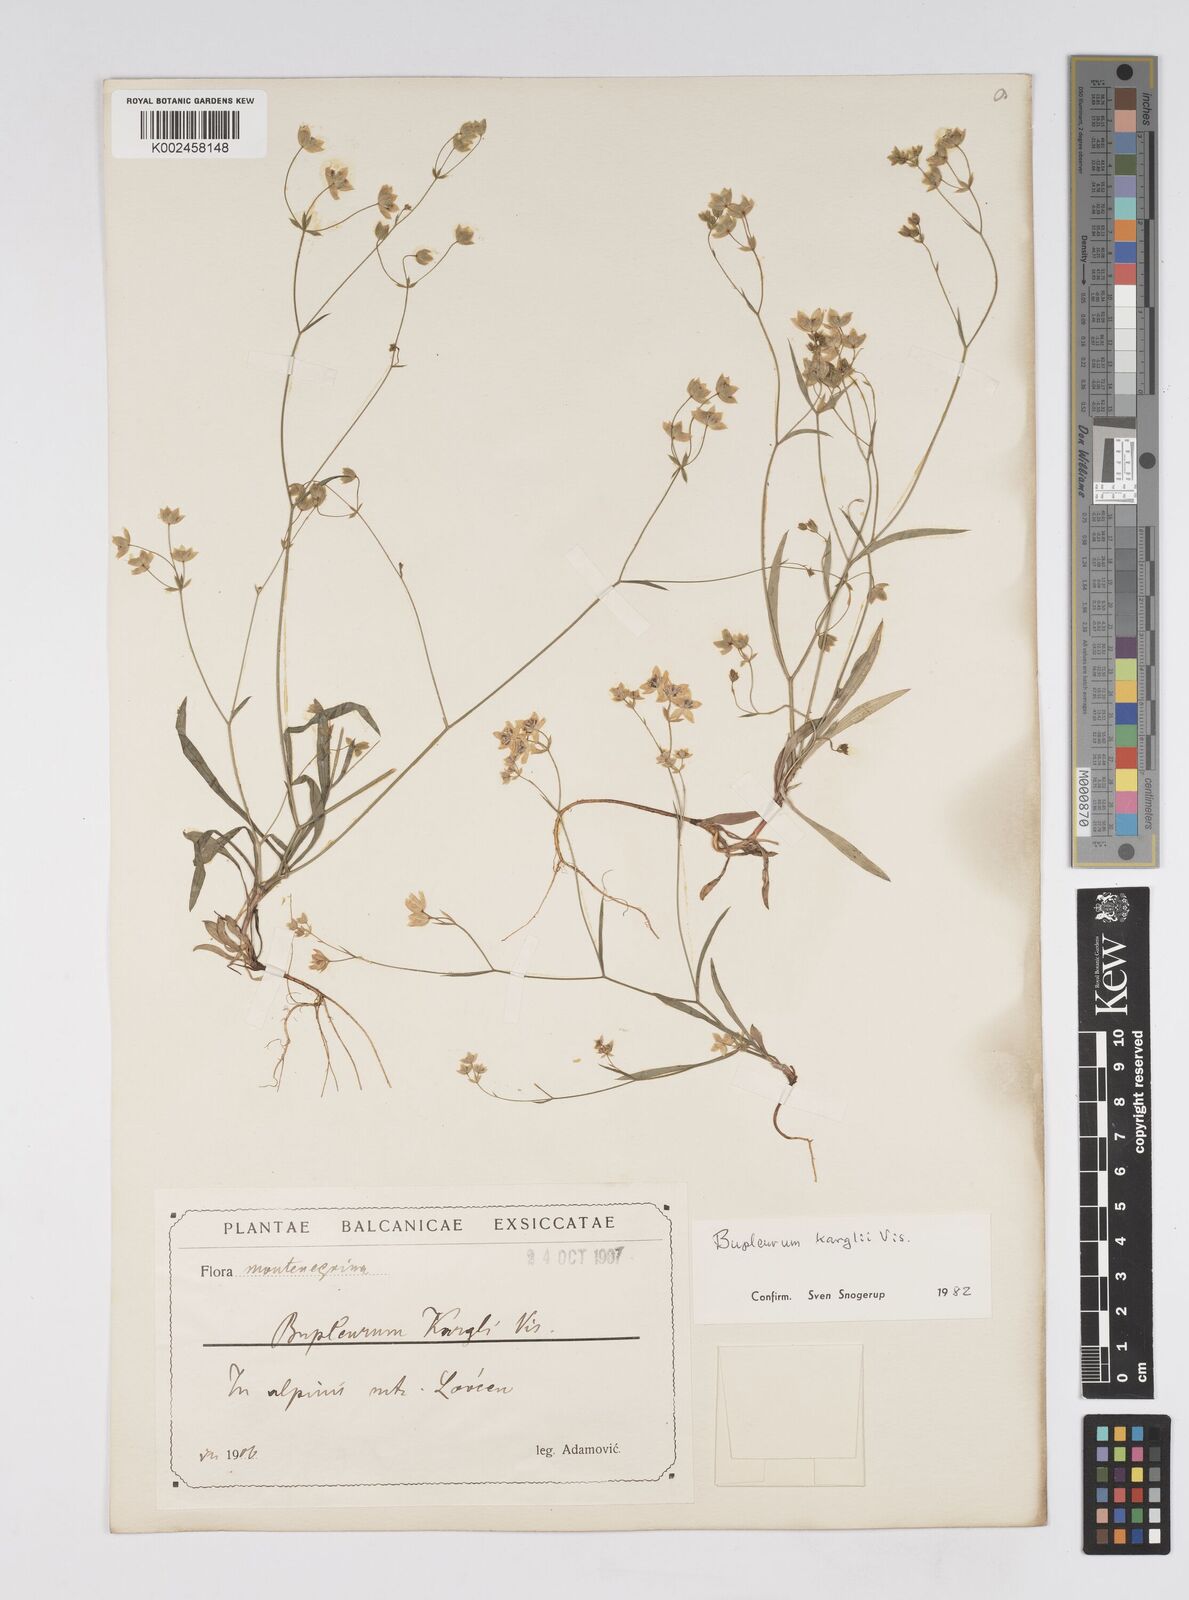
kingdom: Plantae
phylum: Tracheophyta
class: Magnoliopsida
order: Apiales
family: Apiaceae
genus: Bupleurum
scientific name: Bupleurum karglii
